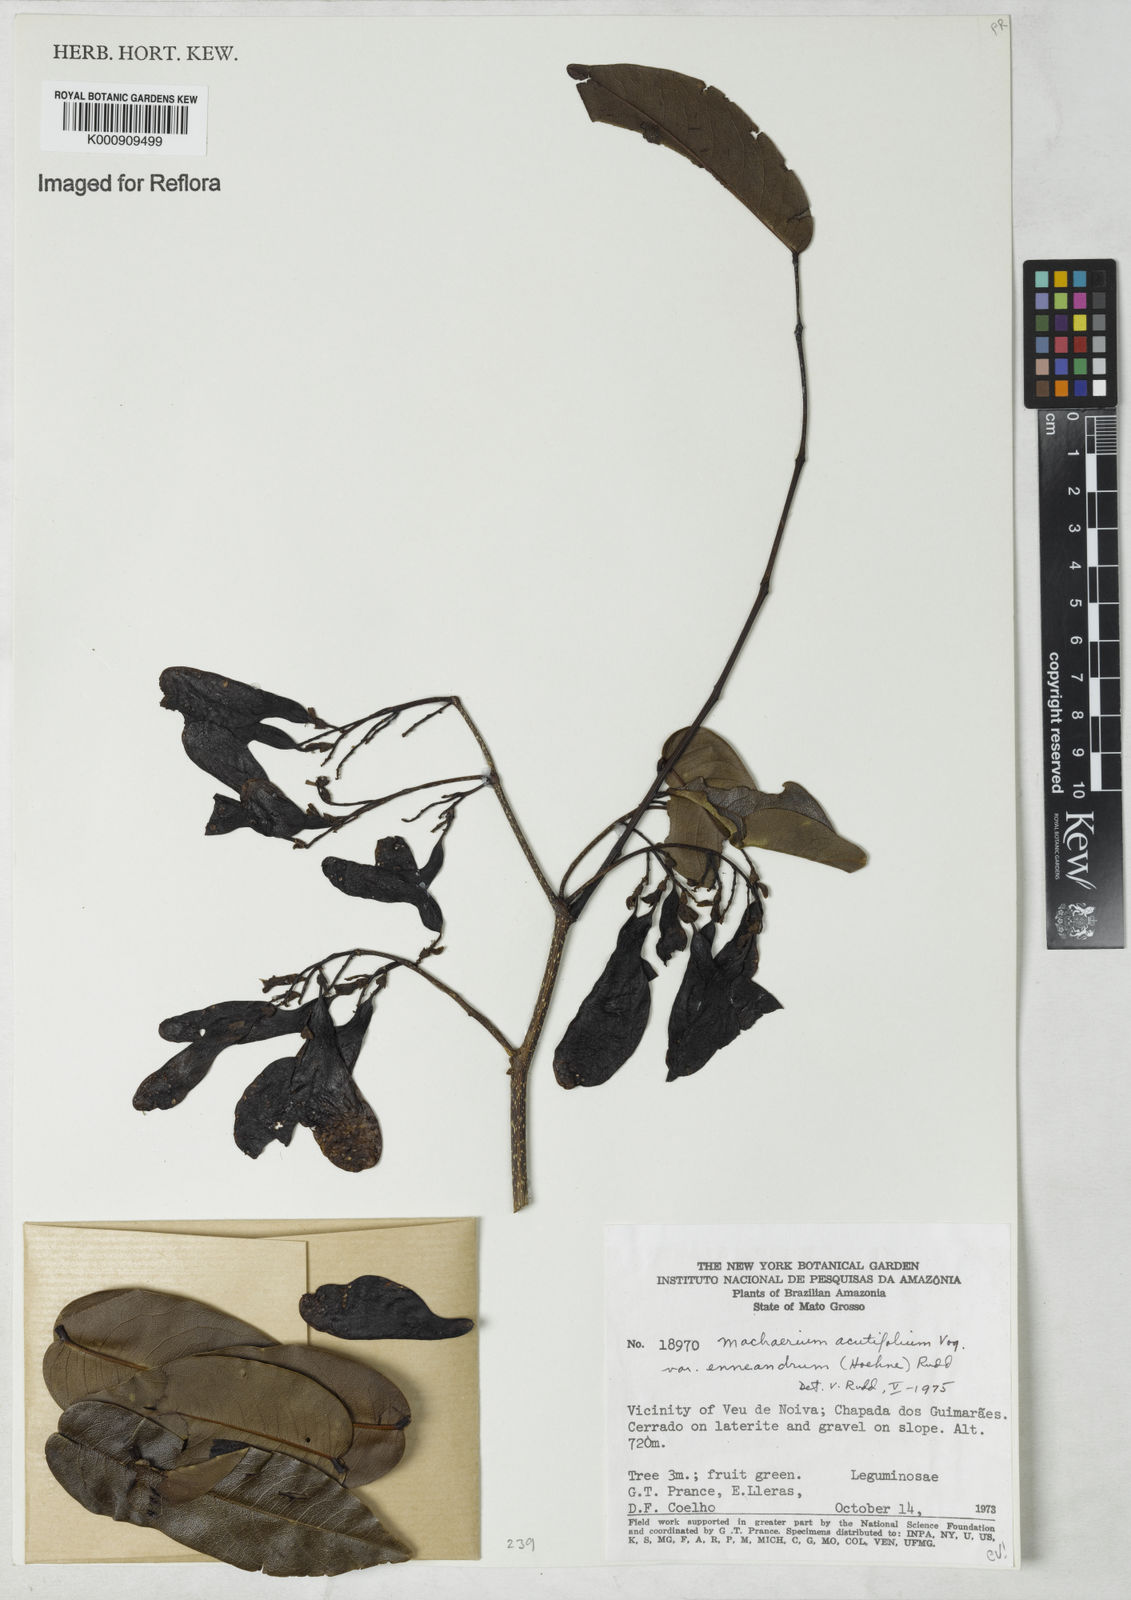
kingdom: Plantae
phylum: Tracheophyta
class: Magnoliopsida
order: Fabales
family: Fabaceae
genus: Machaerium
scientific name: Machaerium acutifolium
